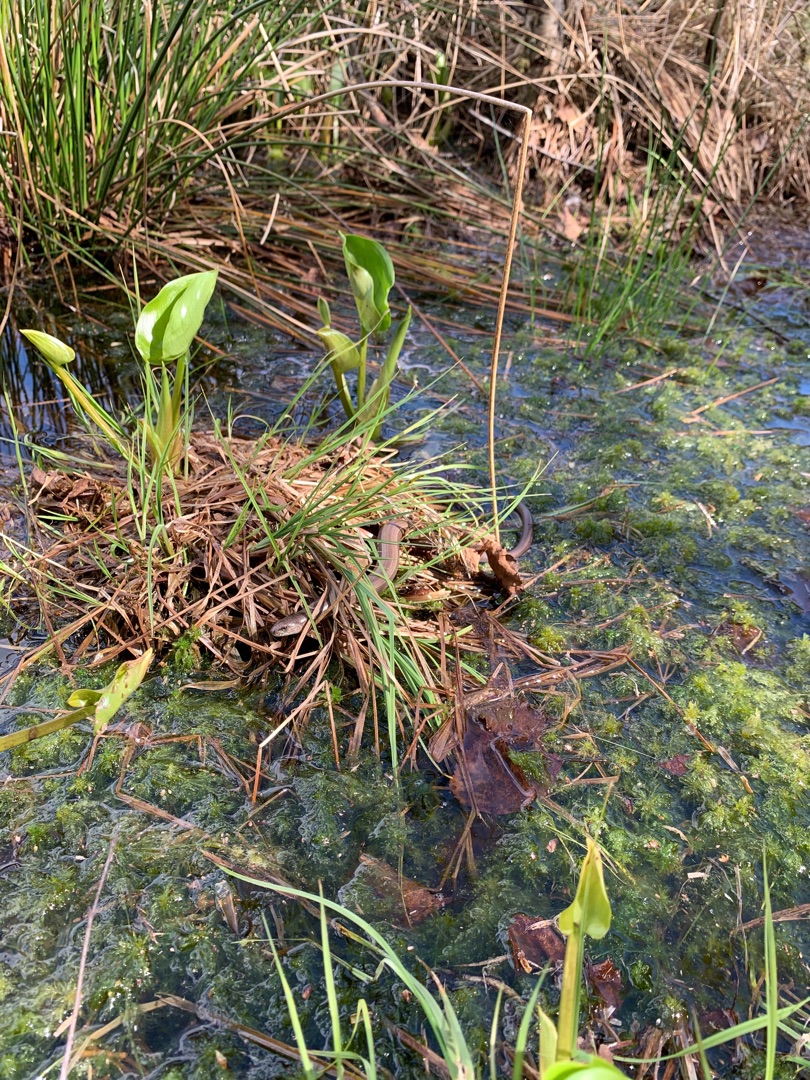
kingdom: Animalia
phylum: Chordata
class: Squamata
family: Anguidae
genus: Anguis
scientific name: Anguis fragilis
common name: Stålorm
